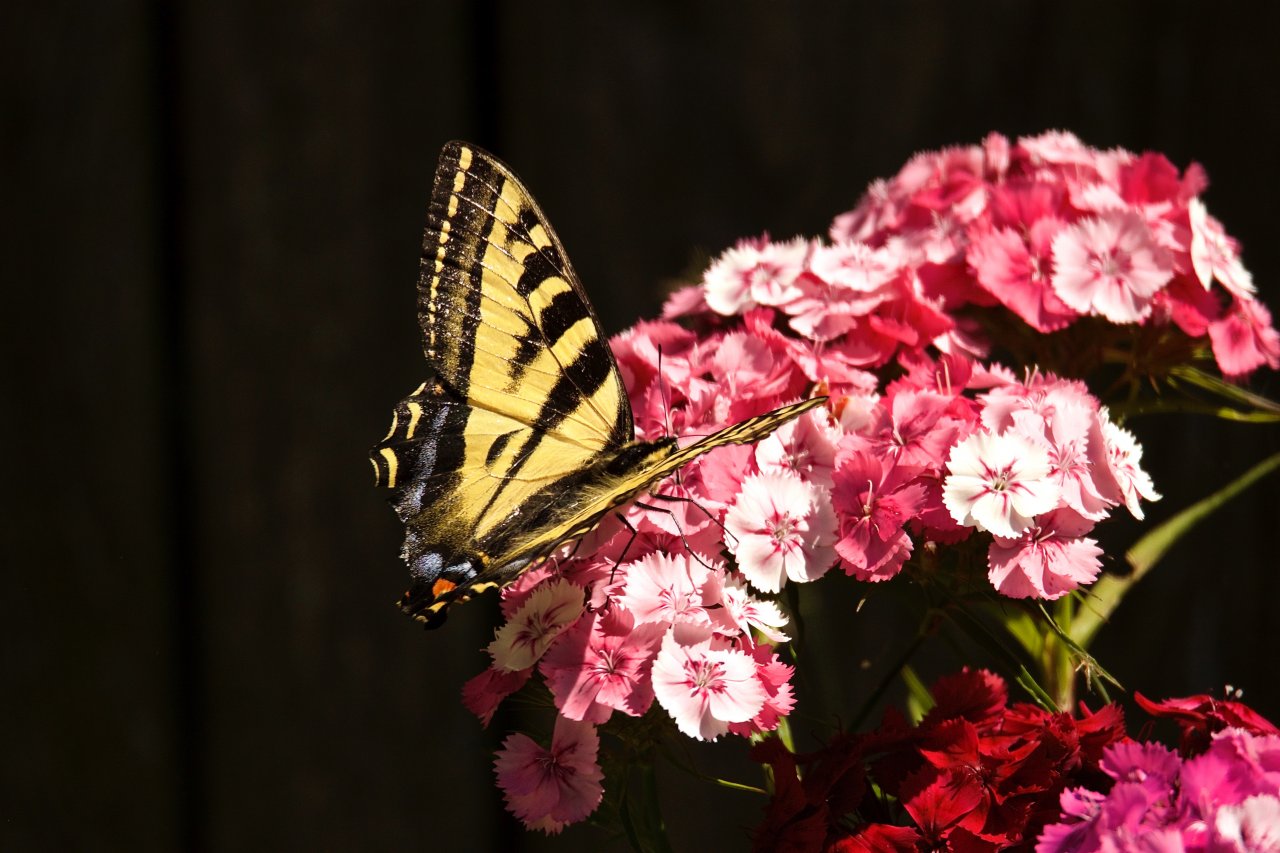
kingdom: Animalia
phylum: Arthropoda
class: Insecta
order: Lepidoptera
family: Papilionidae
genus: Pterourus
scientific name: Pterourus rutulus
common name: Western Tiger Swallowtail
